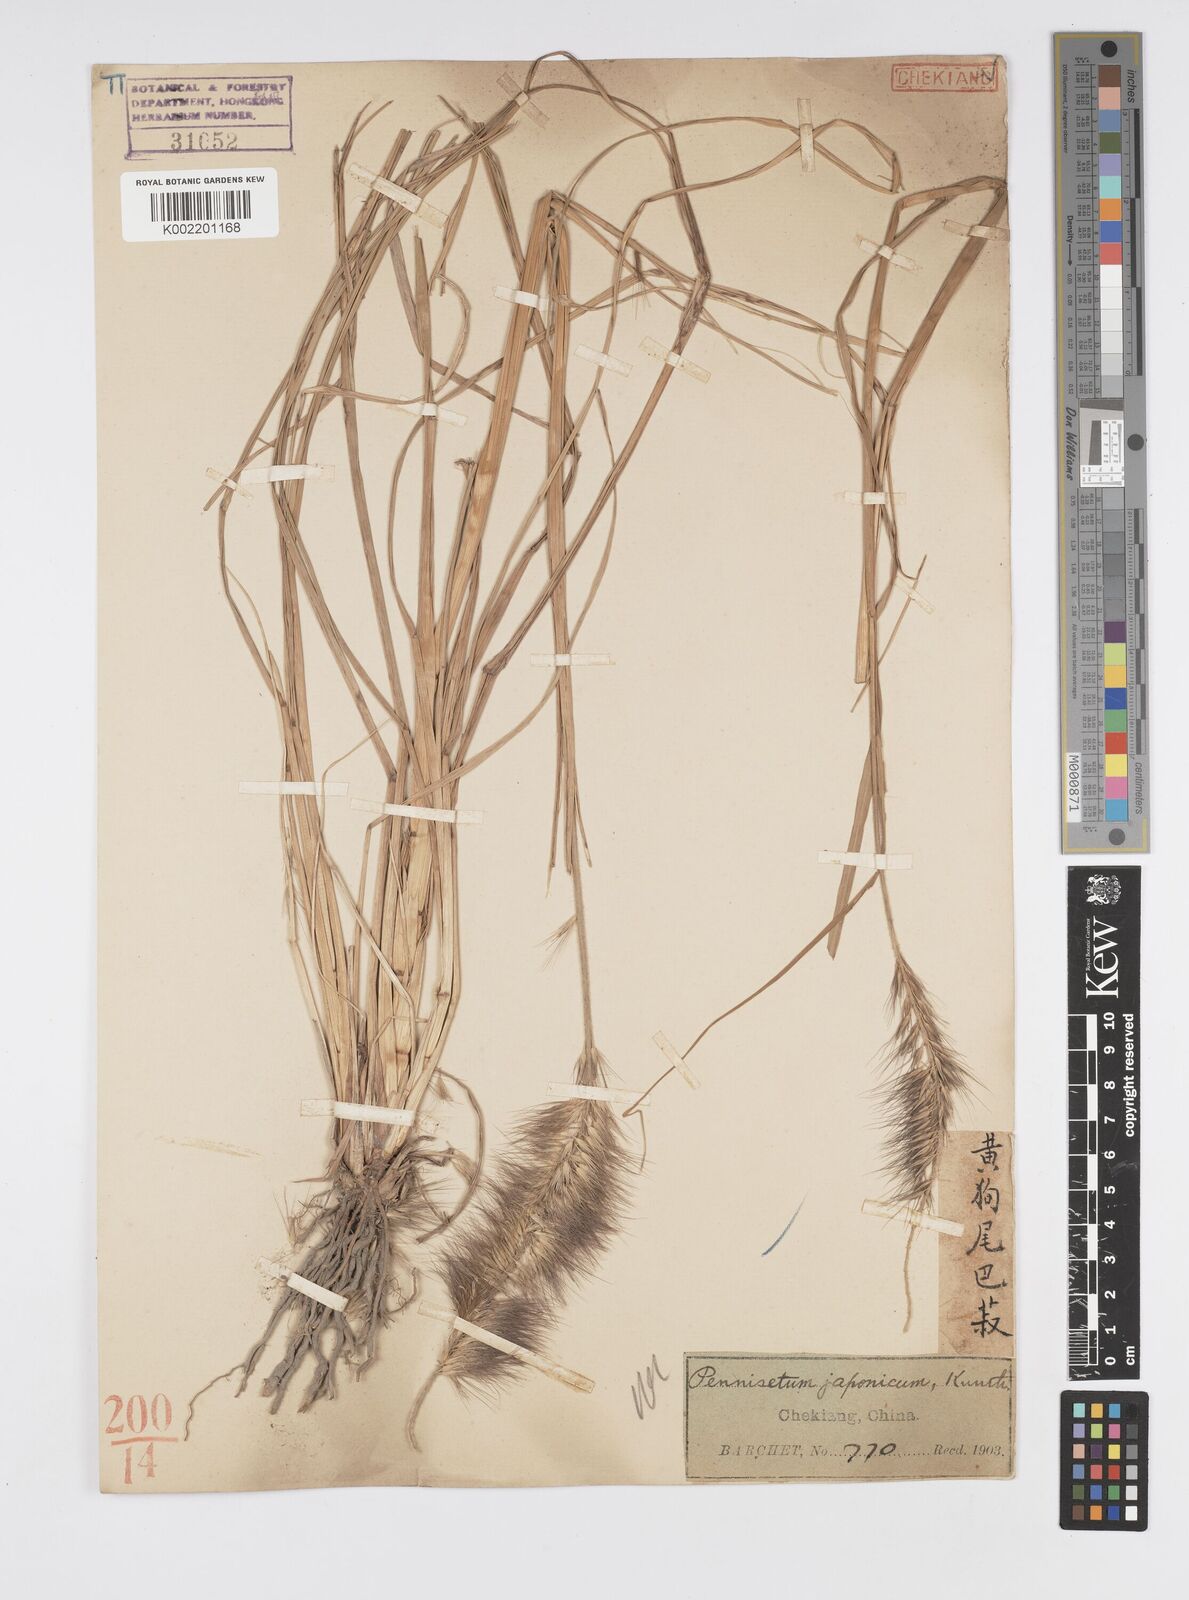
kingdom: Plantae
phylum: Tracheophyta
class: Liliopsida
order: Poales
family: Poaceae
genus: Cenchrus
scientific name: Cenchrus alopecuroides
